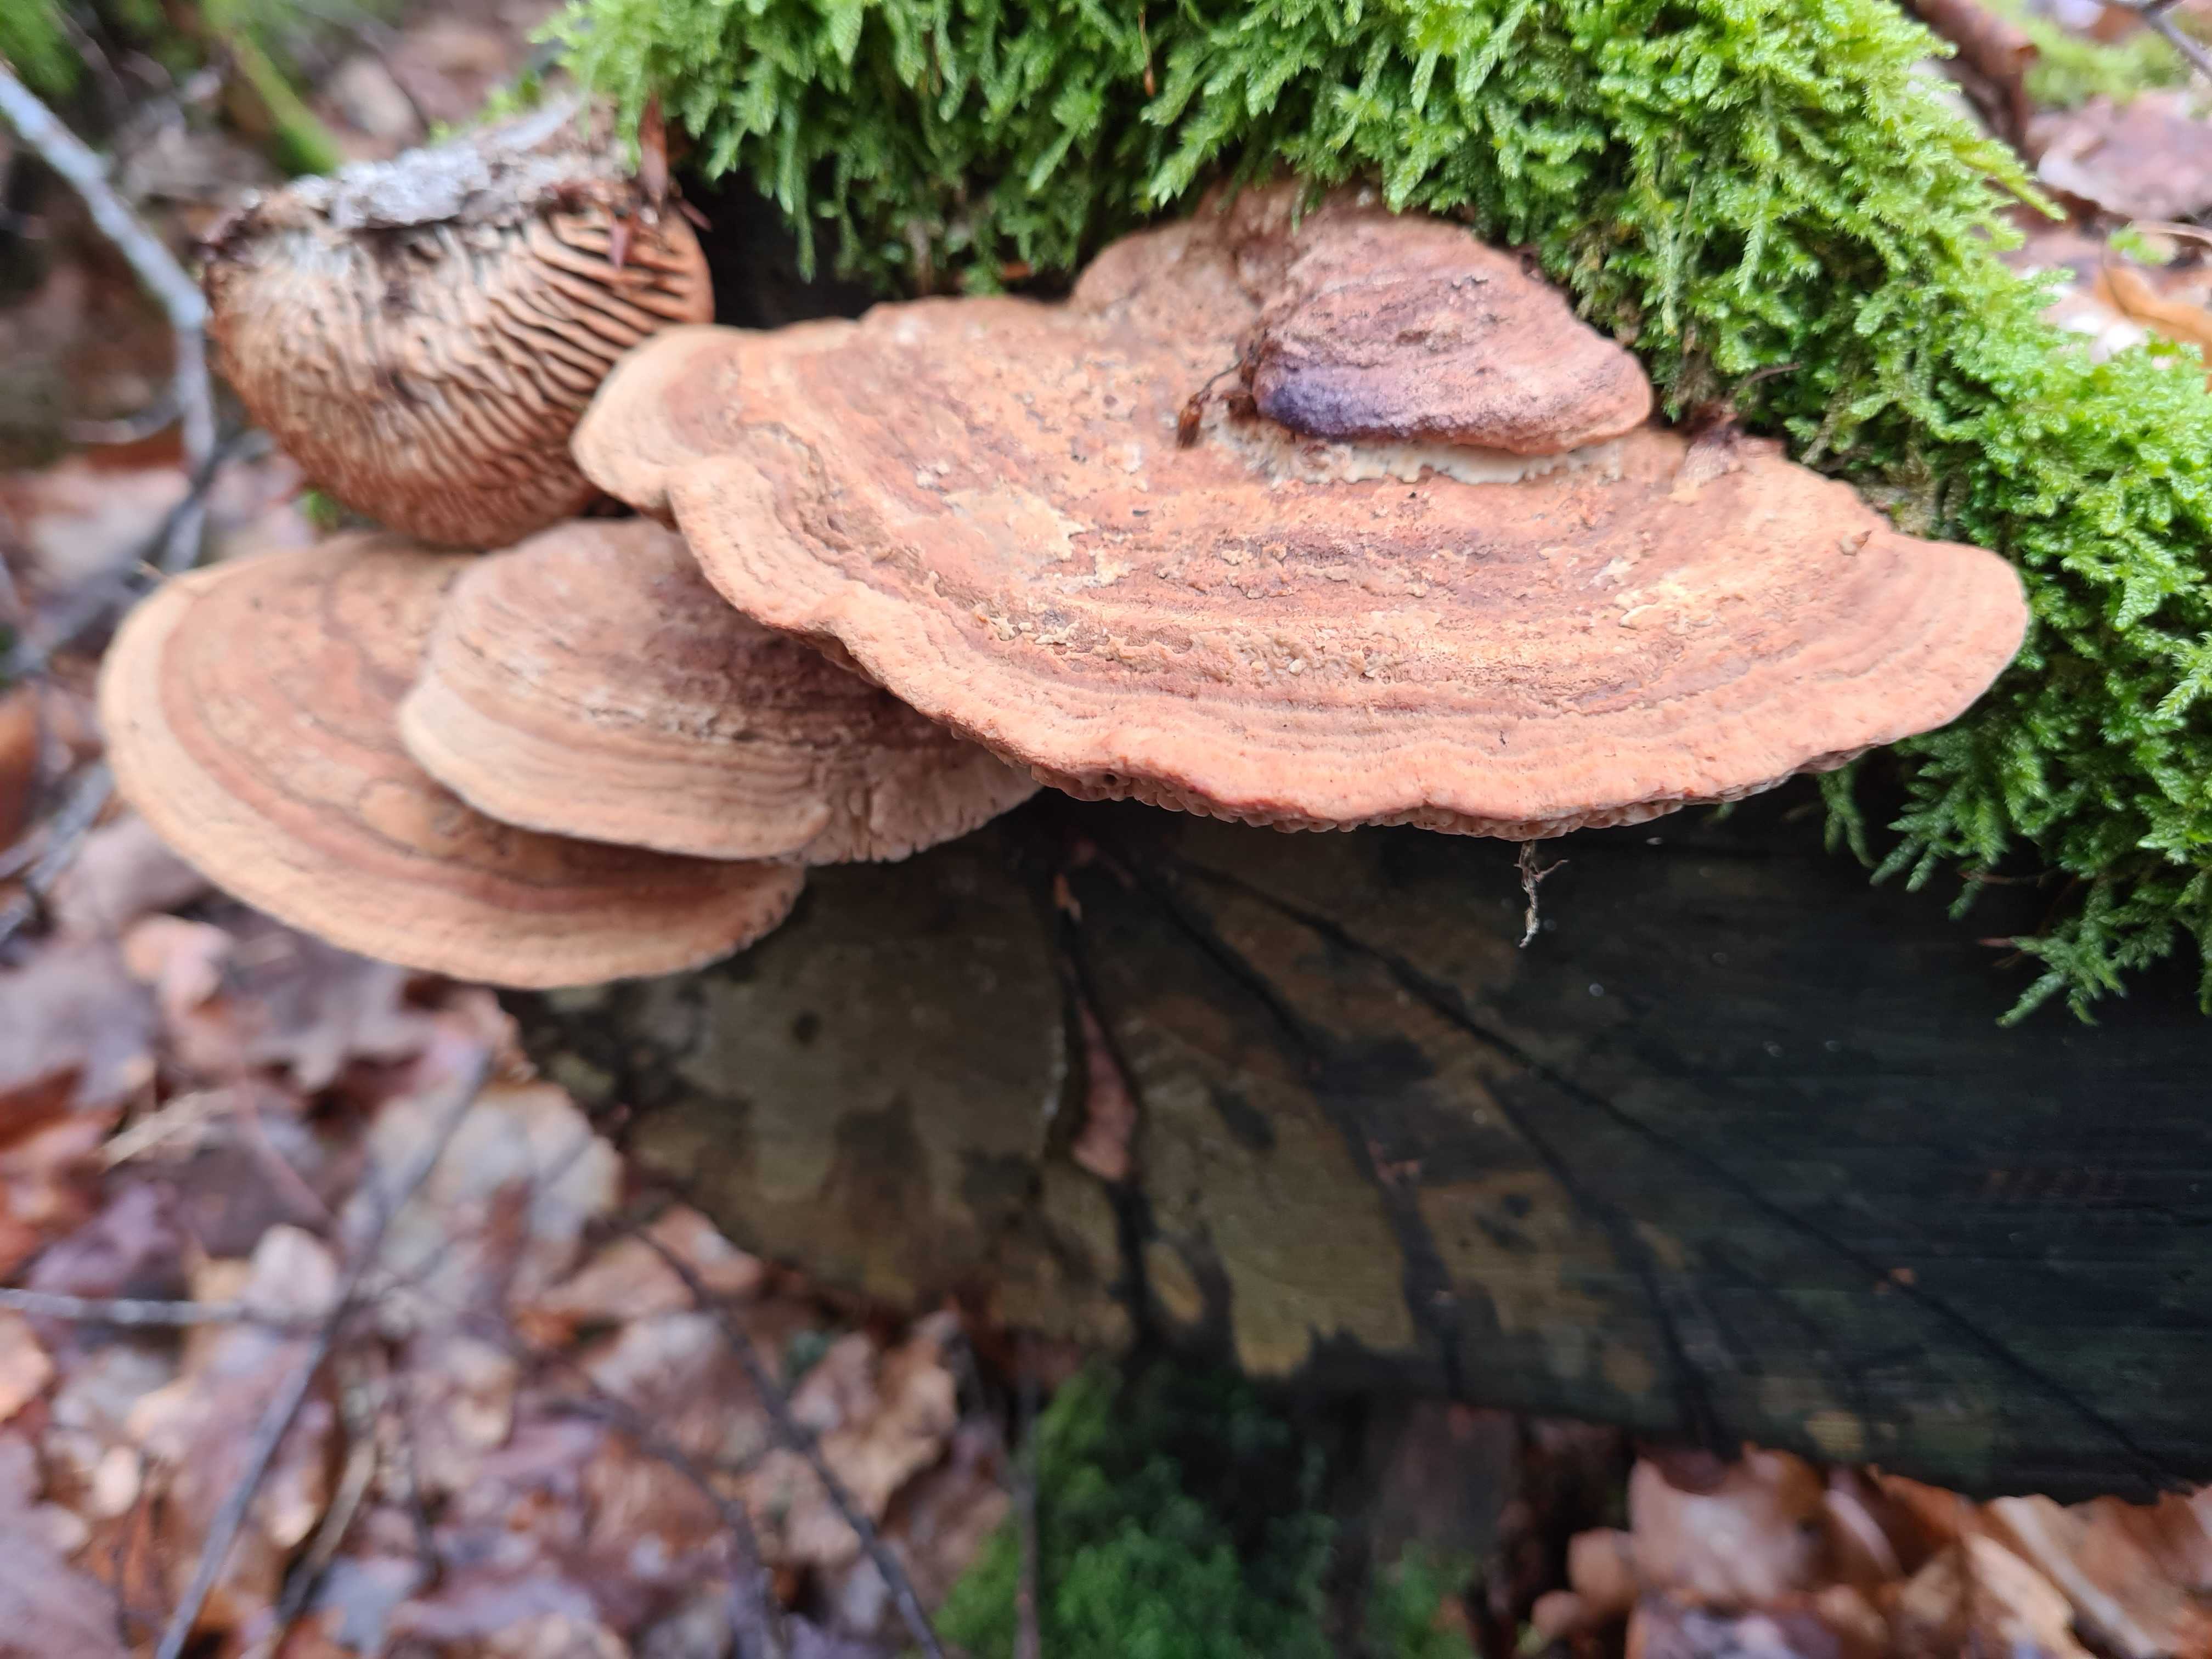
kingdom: Fungi
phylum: Basidiomycota
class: Agaricomycetes
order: Polyporales
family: Fomitopsidaceae
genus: Daedalea
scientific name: Daedalea quercina
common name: ege-labyrintsvamp
